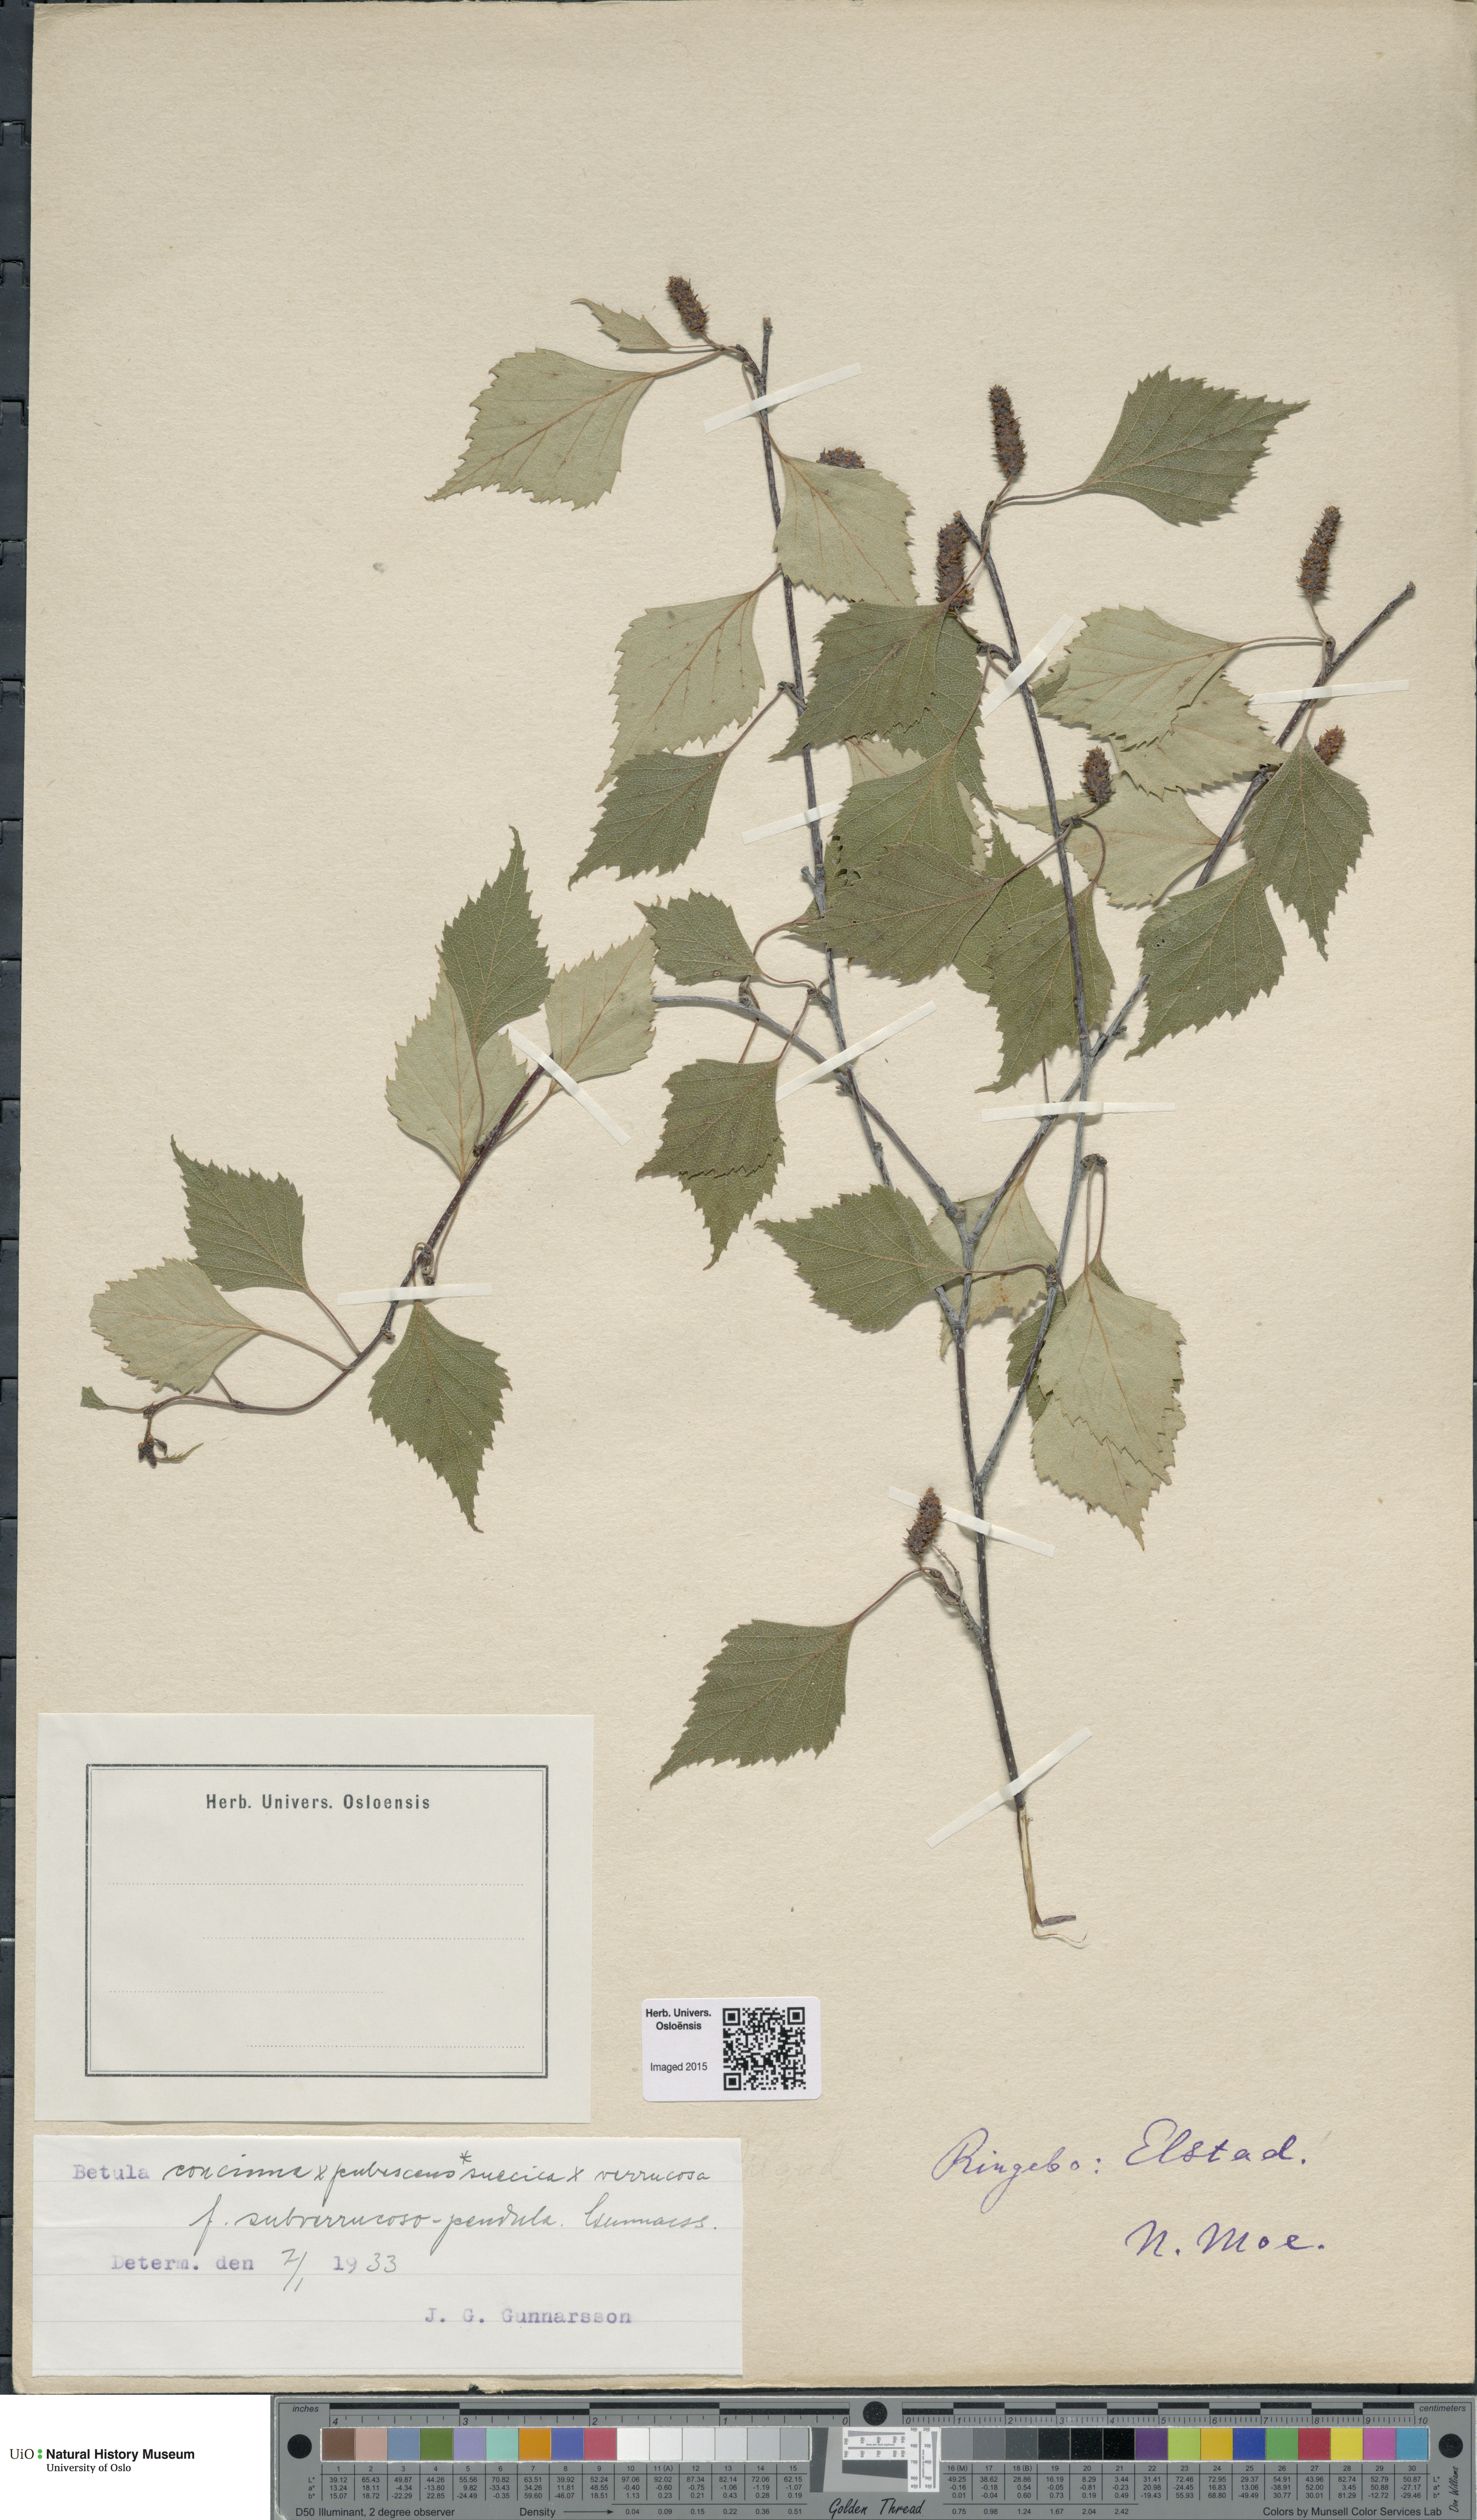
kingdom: Plantae
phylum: Tracheophyta
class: Magnoliopsida
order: Fagales
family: Betulaceae
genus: Betula
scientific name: Betula pubescens
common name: Downy birch
